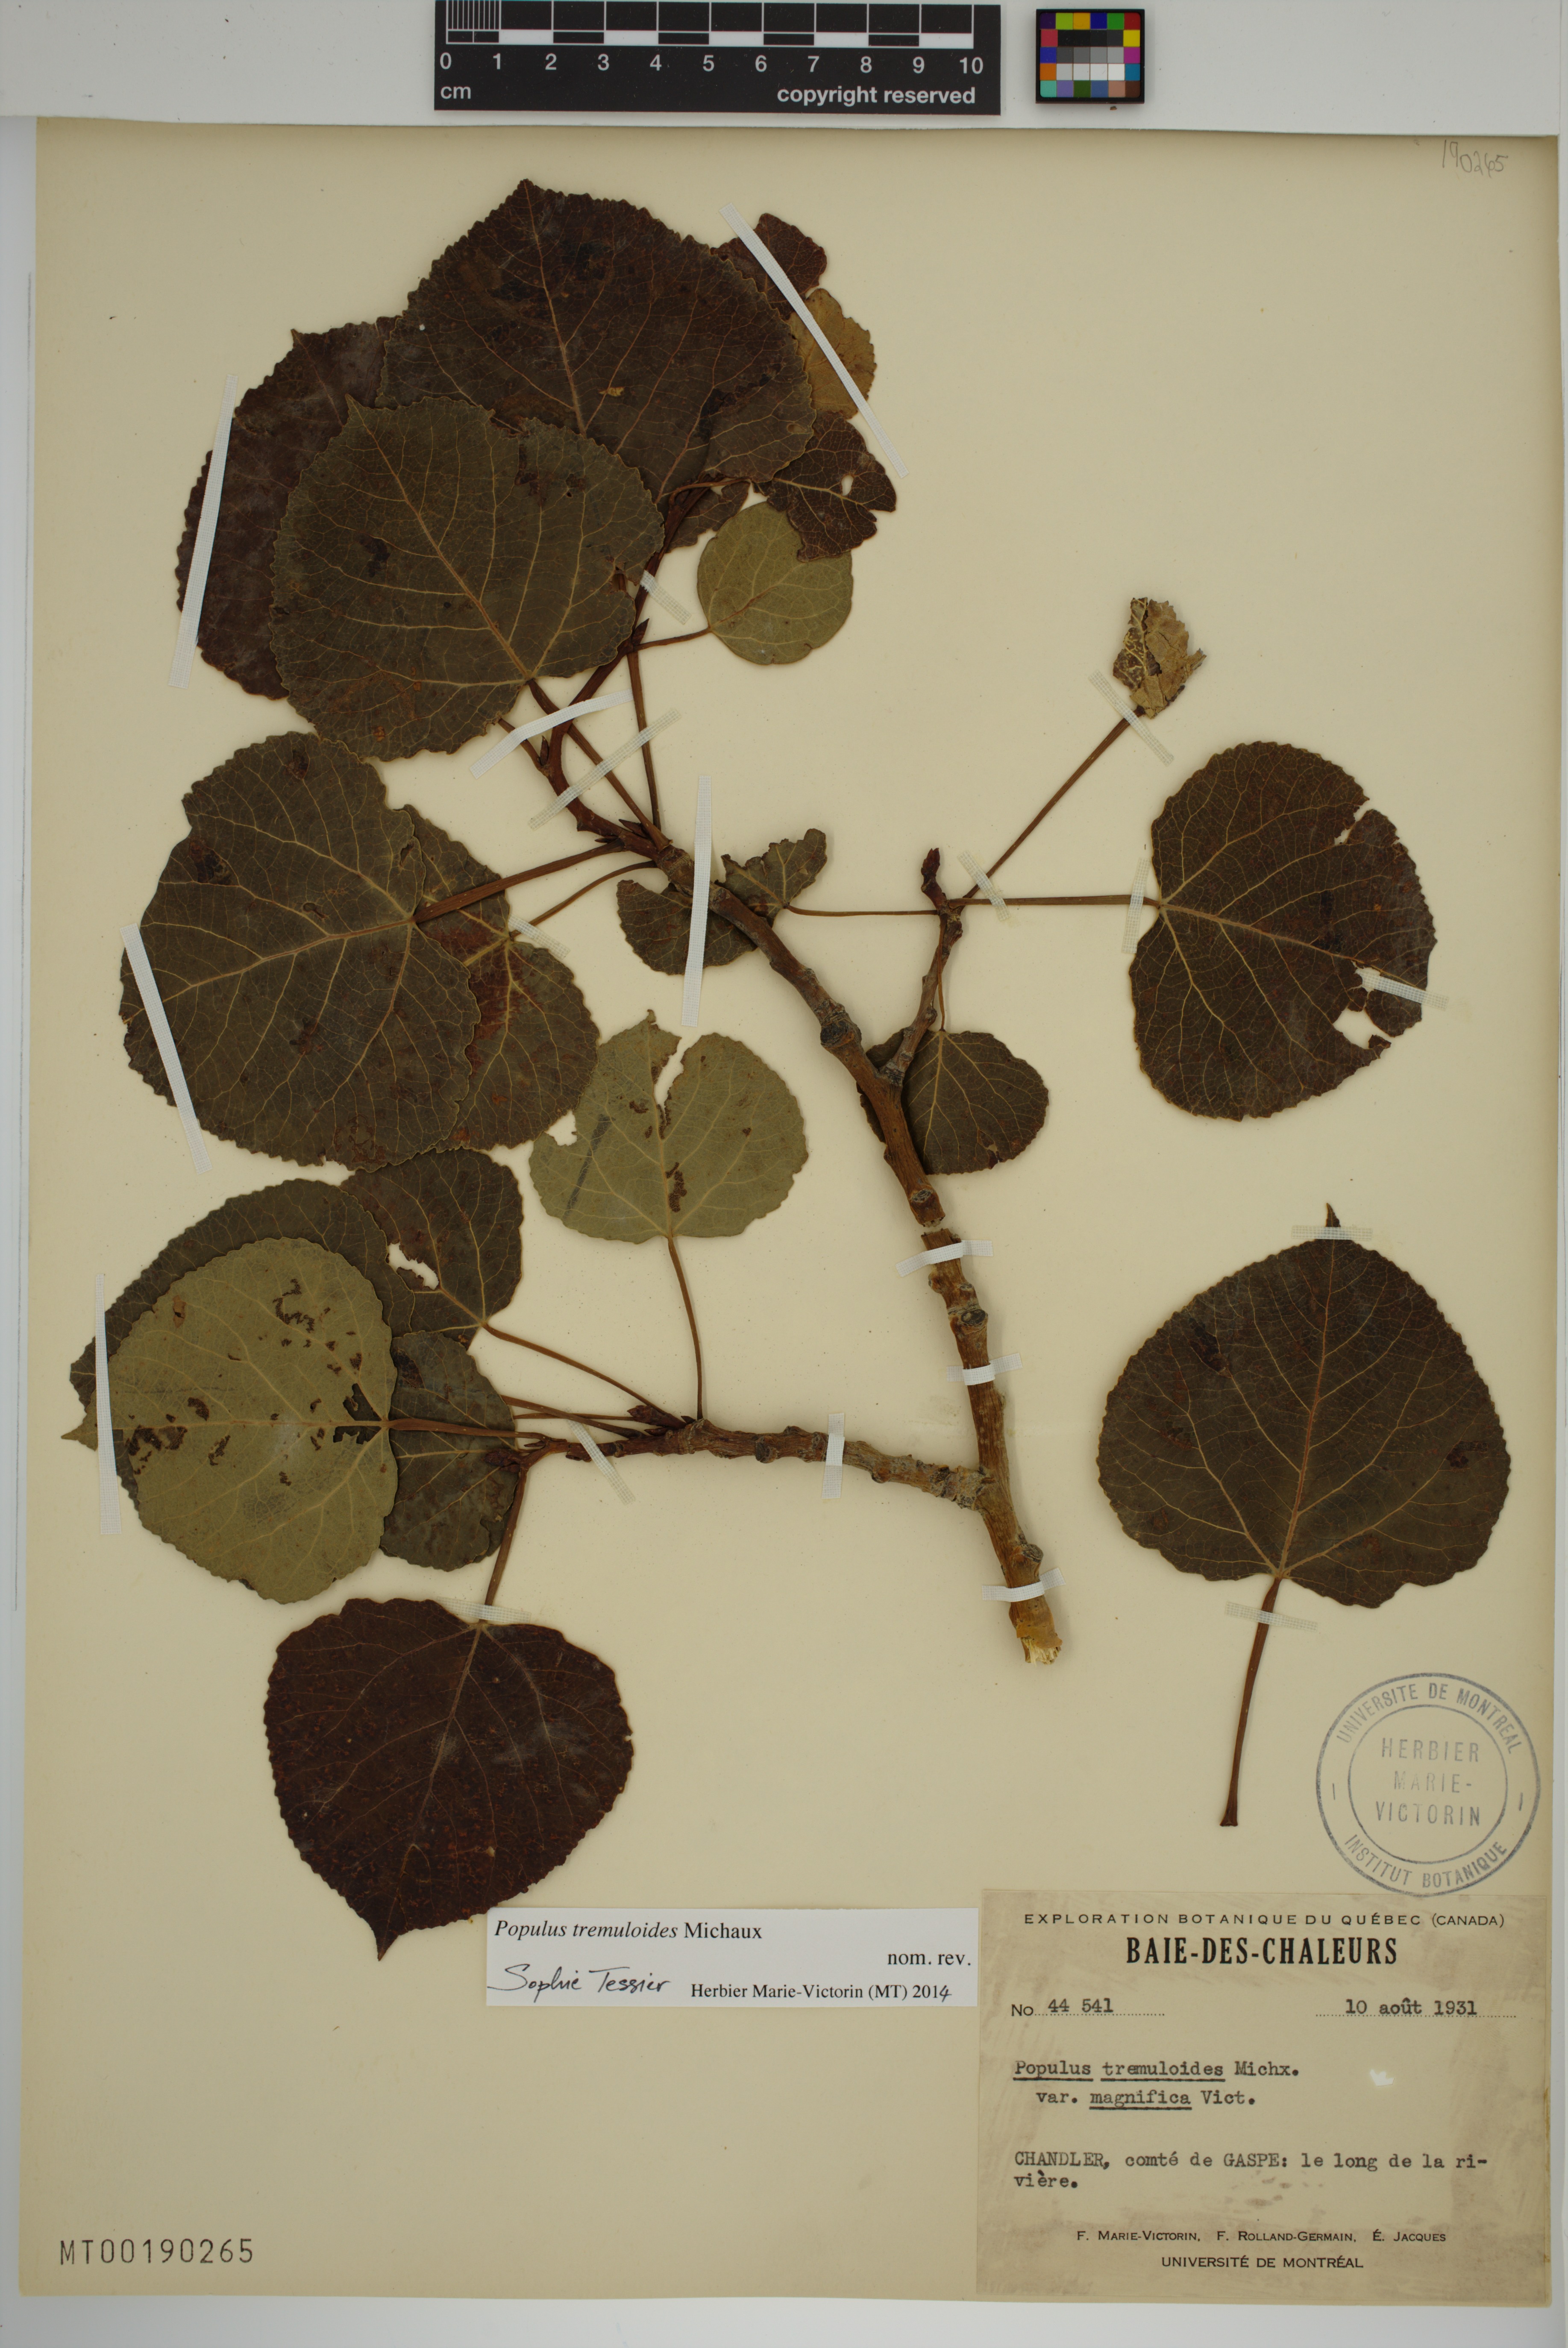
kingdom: Plantae
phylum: Tracheophyta
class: Magnoliopsida
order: Malpighiales
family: Salicaceae
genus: Populus
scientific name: Populus tremuloides
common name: Quaking aspen
